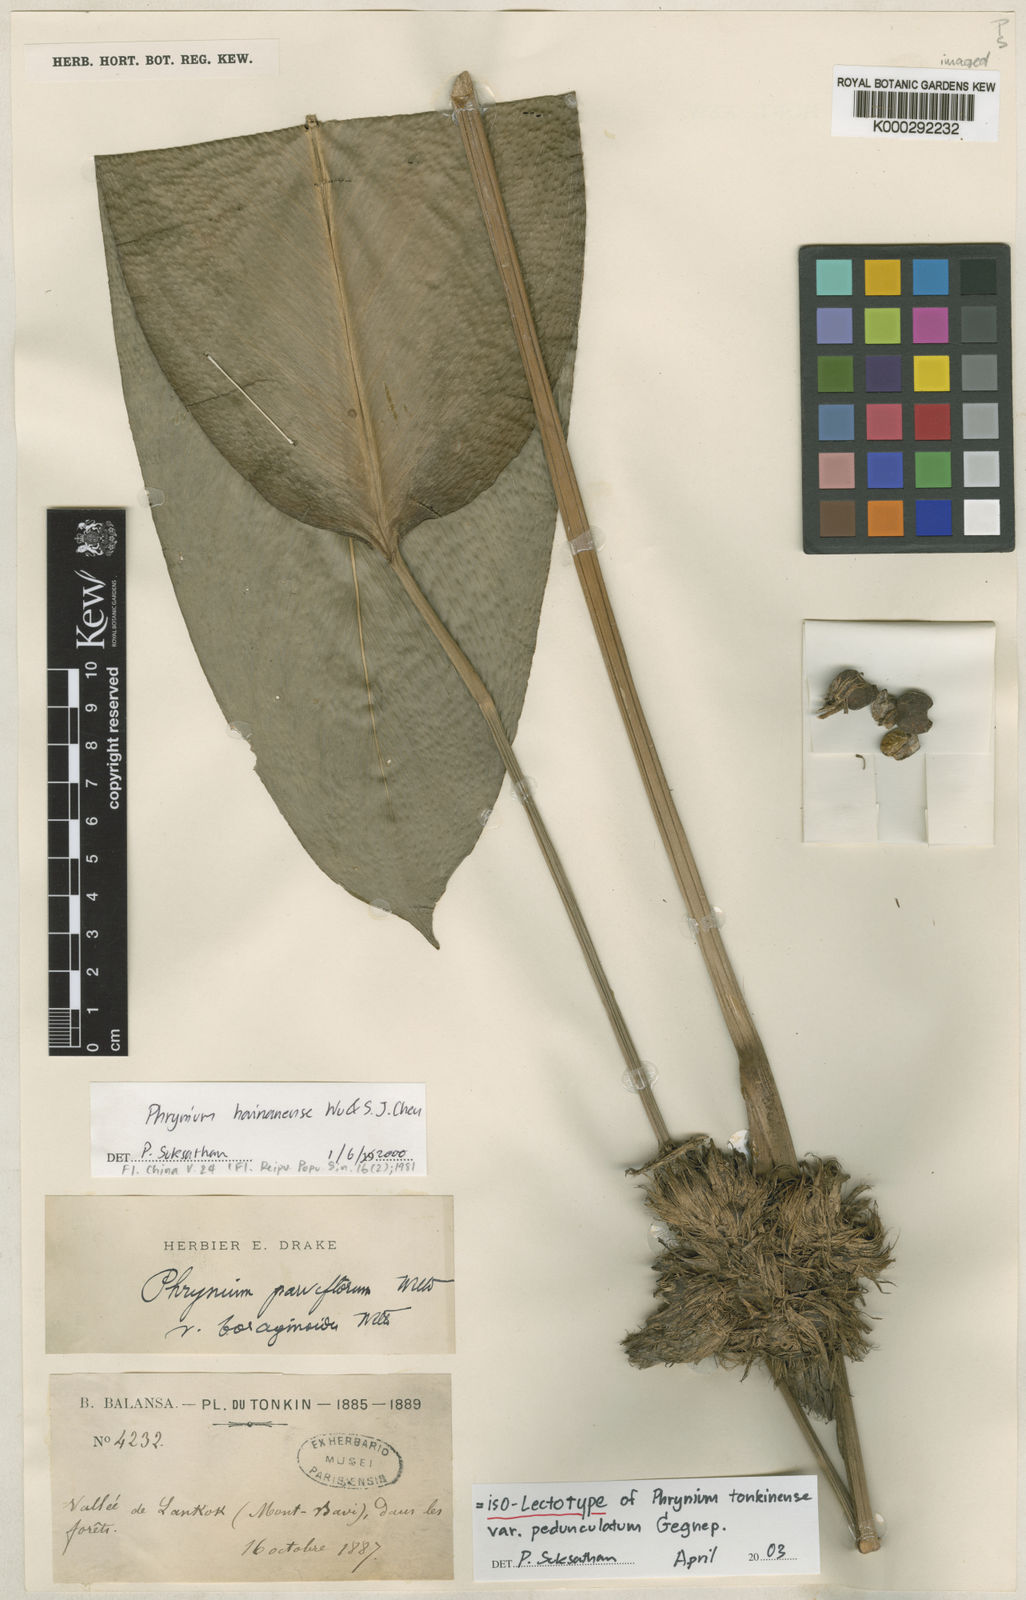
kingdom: Plantae
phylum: Tracheophyta
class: Liliopsida
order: Zingiberales
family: Marantaceae
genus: Phrynium
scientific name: Phrynium hainanense
